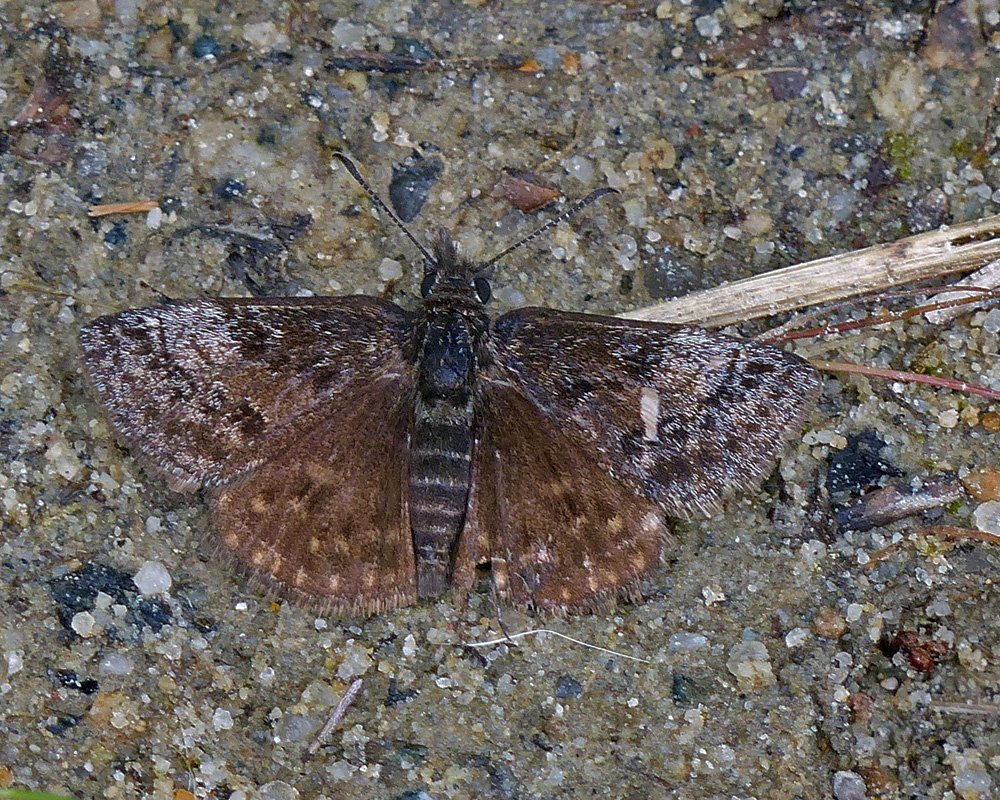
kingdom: Animalia
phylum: Arthropoda
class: Insecta
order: Lepidoptera
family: Hesperiidae
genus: Erynnis
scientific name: Erynnis icelus
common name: Dreamy Duskywing
